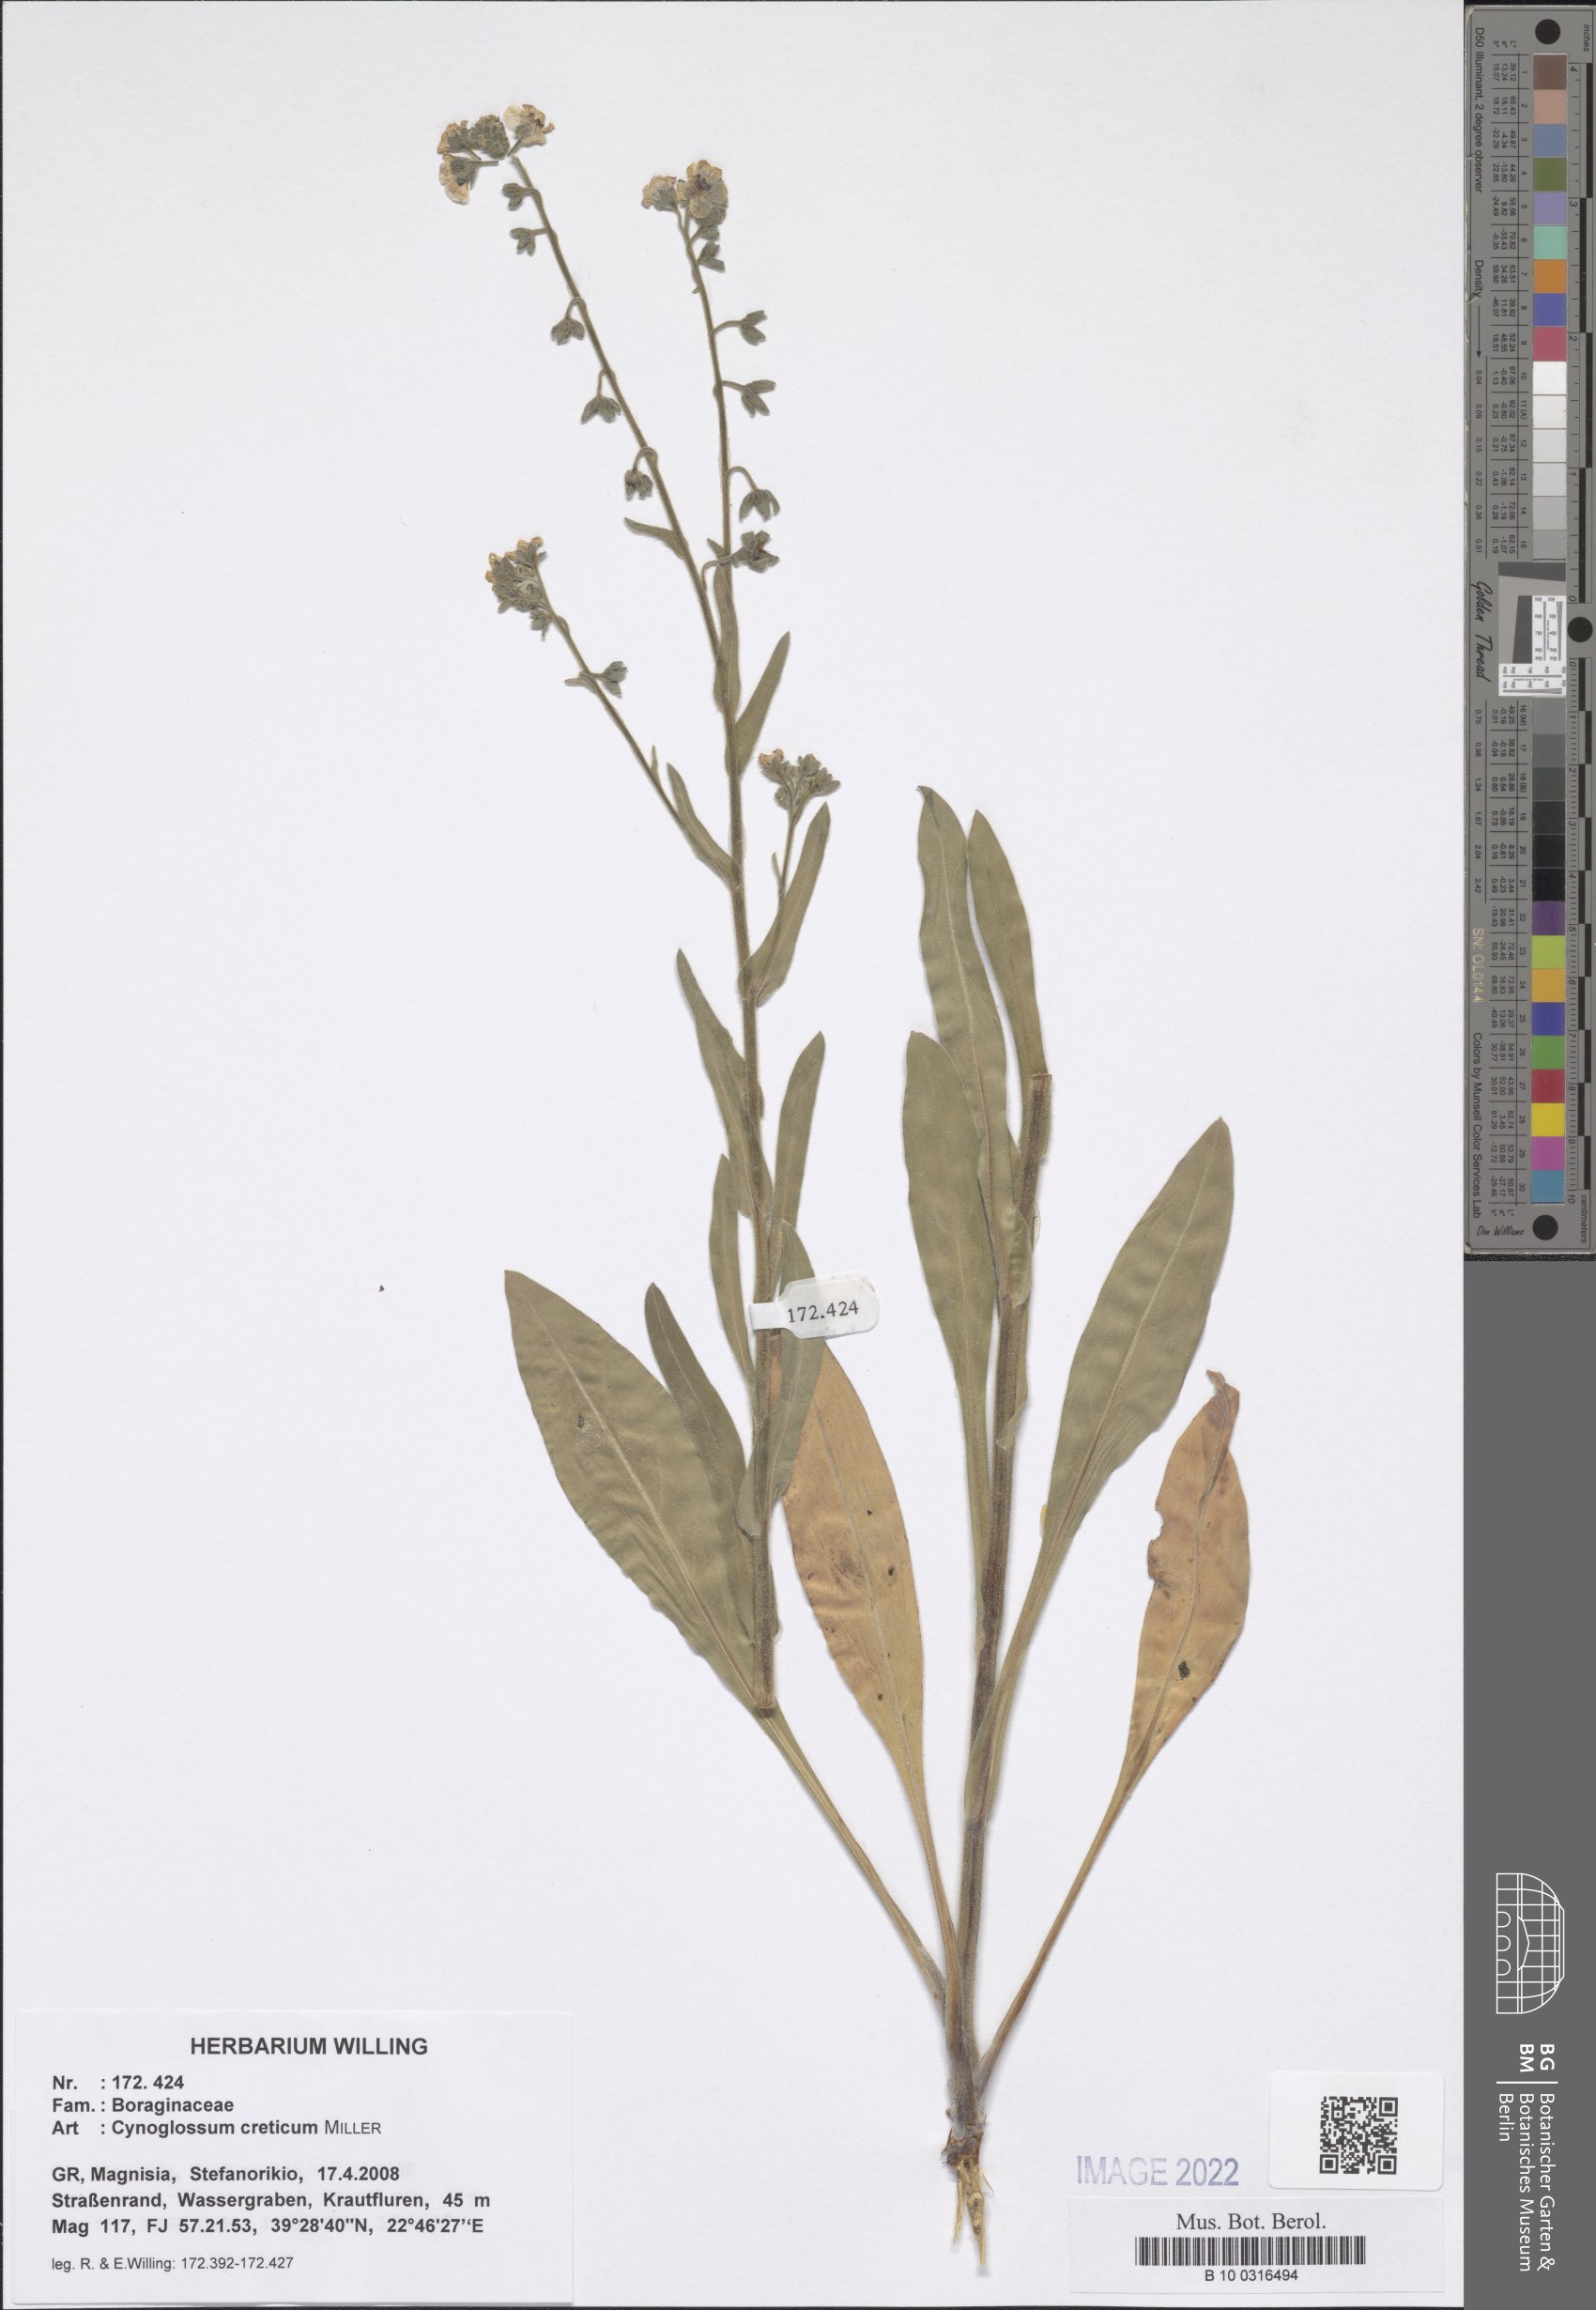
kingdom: Plantae
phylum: Tracheophyta
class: Magnoliopsida
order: Boraginales
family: Boraginaceae
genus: Cynoglossum
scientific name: Cynoglossum creticum
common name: Blue hound's tongue
